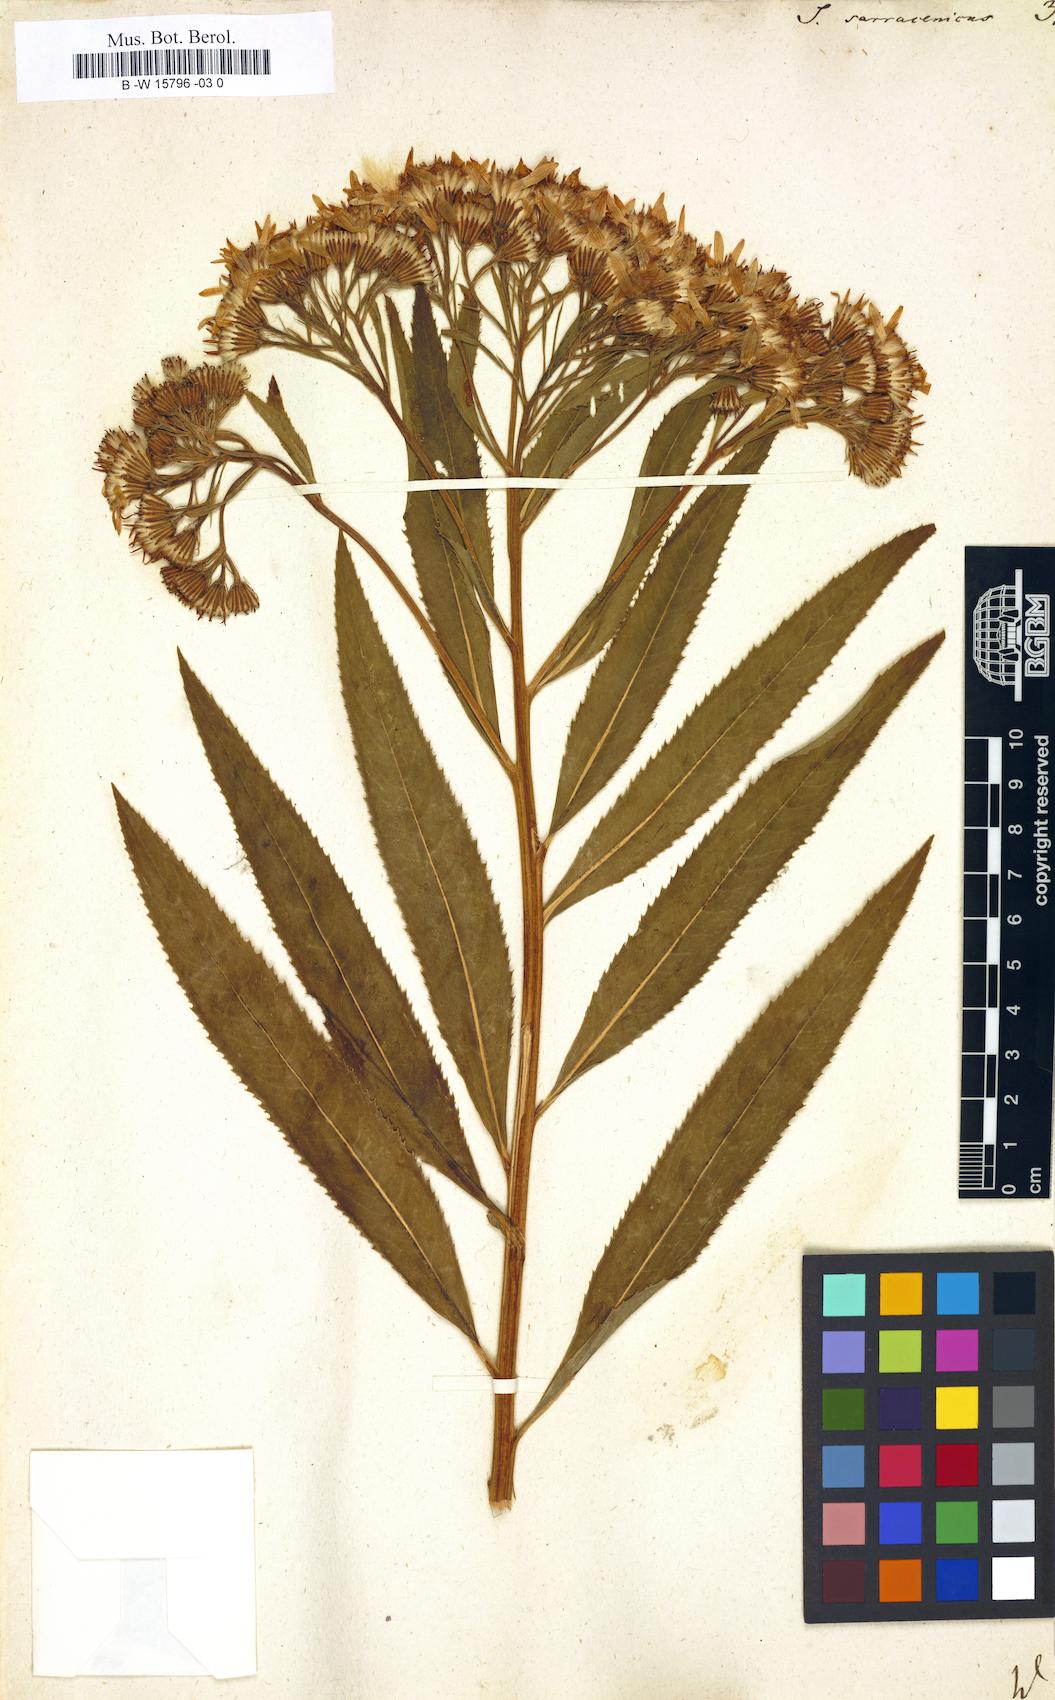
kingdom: Plantae
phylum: Tracheophyta
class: Magnoliopsida
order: Asterales
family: Asteraceae
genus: Senecio
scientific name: Senecio sarracenicus
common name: Broad-leaved ragwort
